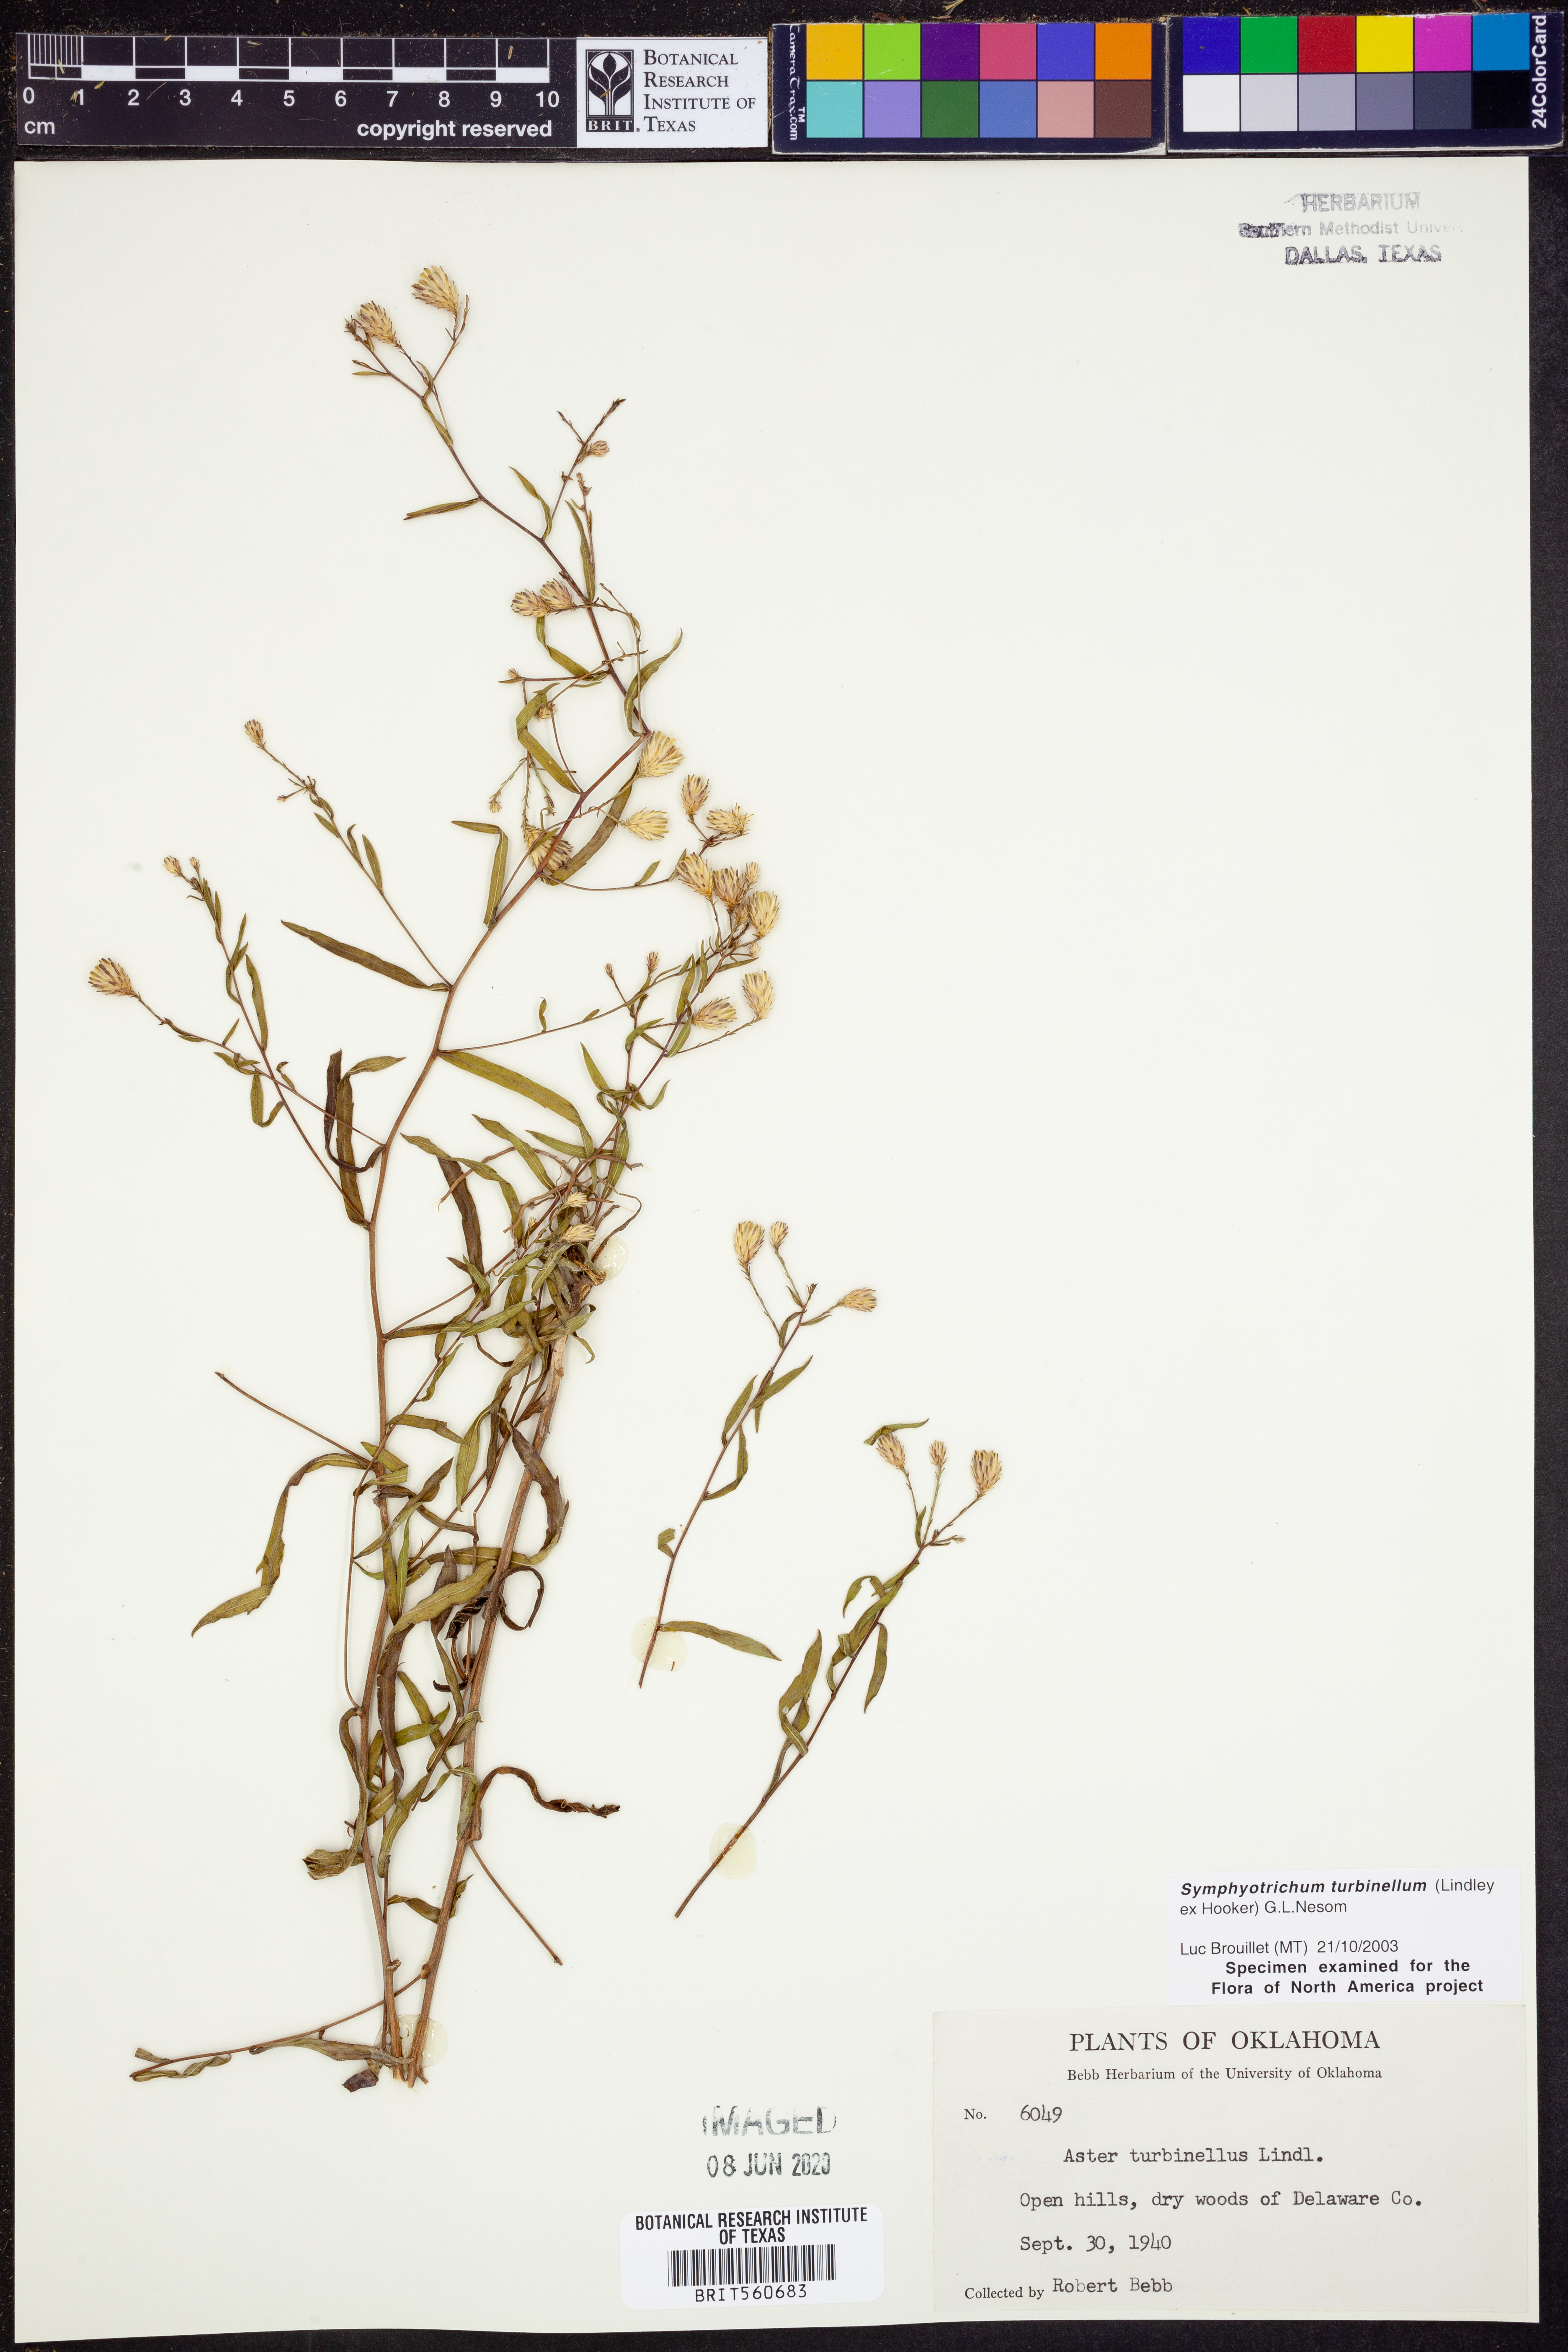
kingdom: Plantae
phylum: Tracheophyta
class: Magnoliopsida
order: Asterales
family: Asteraceae
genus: Symphyotrichum
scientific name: Symphyotrichum turbinellum
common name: Prairie aster
